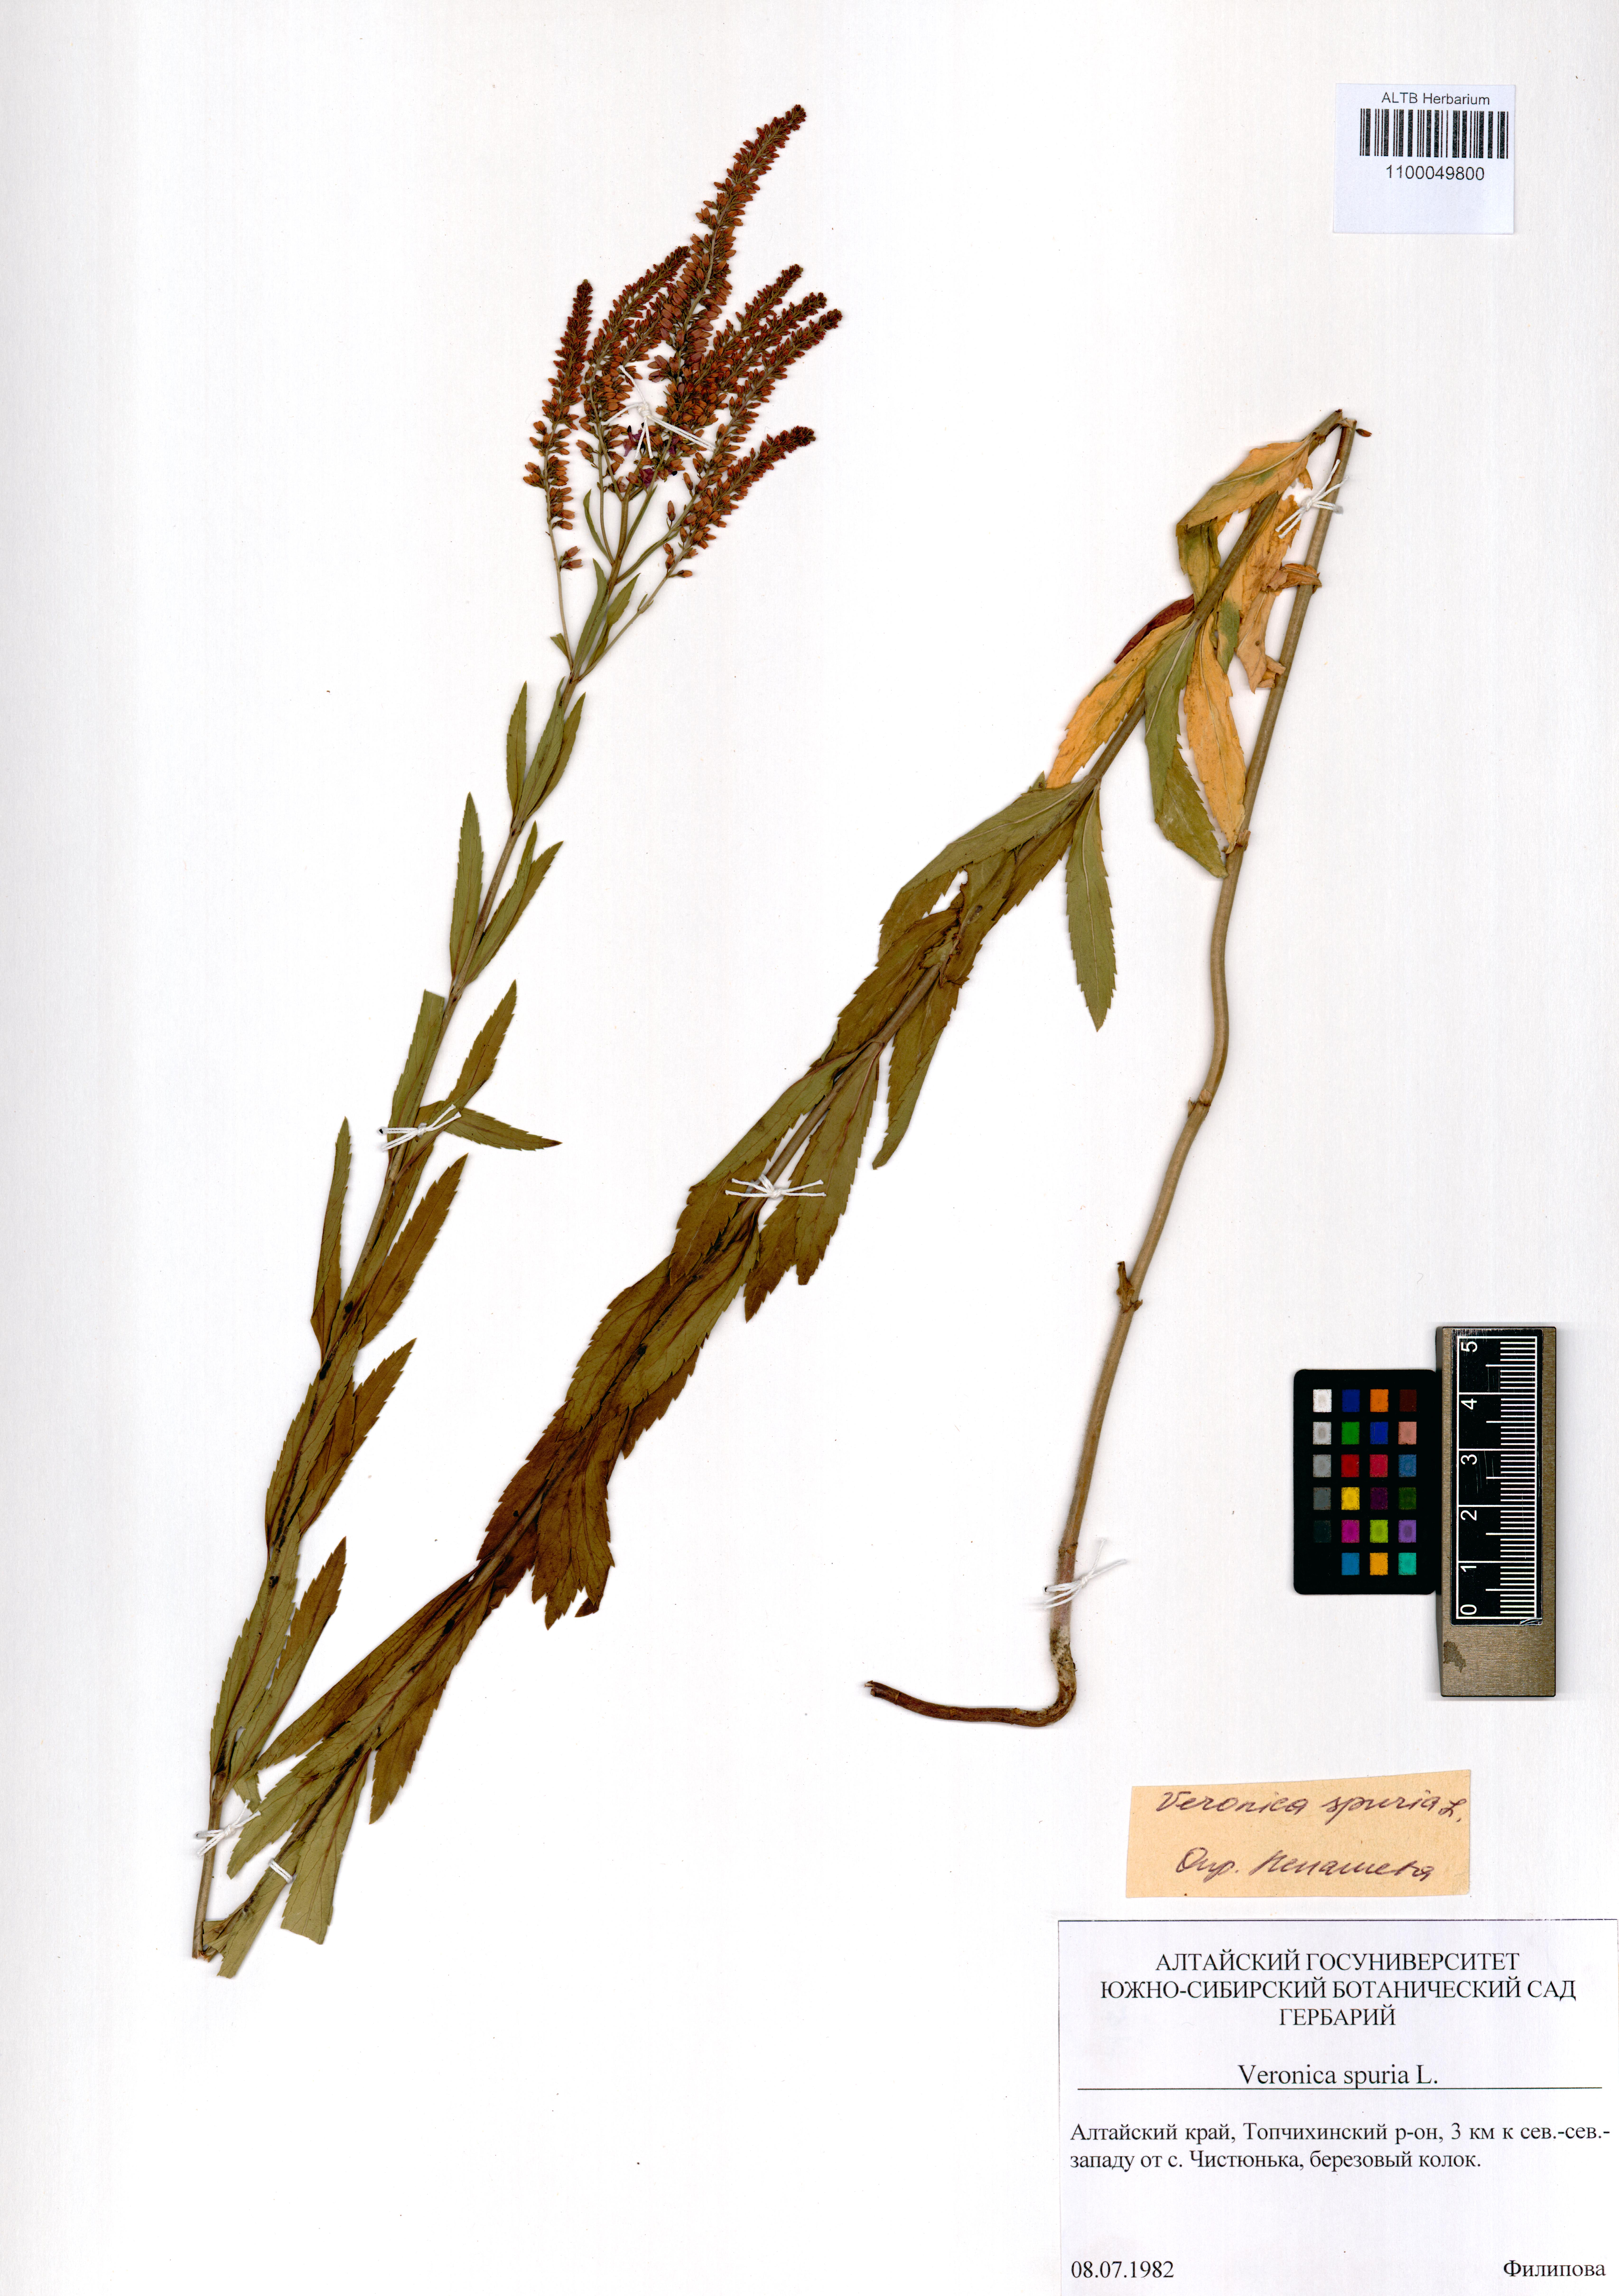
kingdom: Plantae
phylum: Tracheophyta
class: Magnoliopsida
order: Lamiales
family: Plantaginaceae
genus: Veronica
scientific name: Veronica spuria
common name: Bastard speedwell
